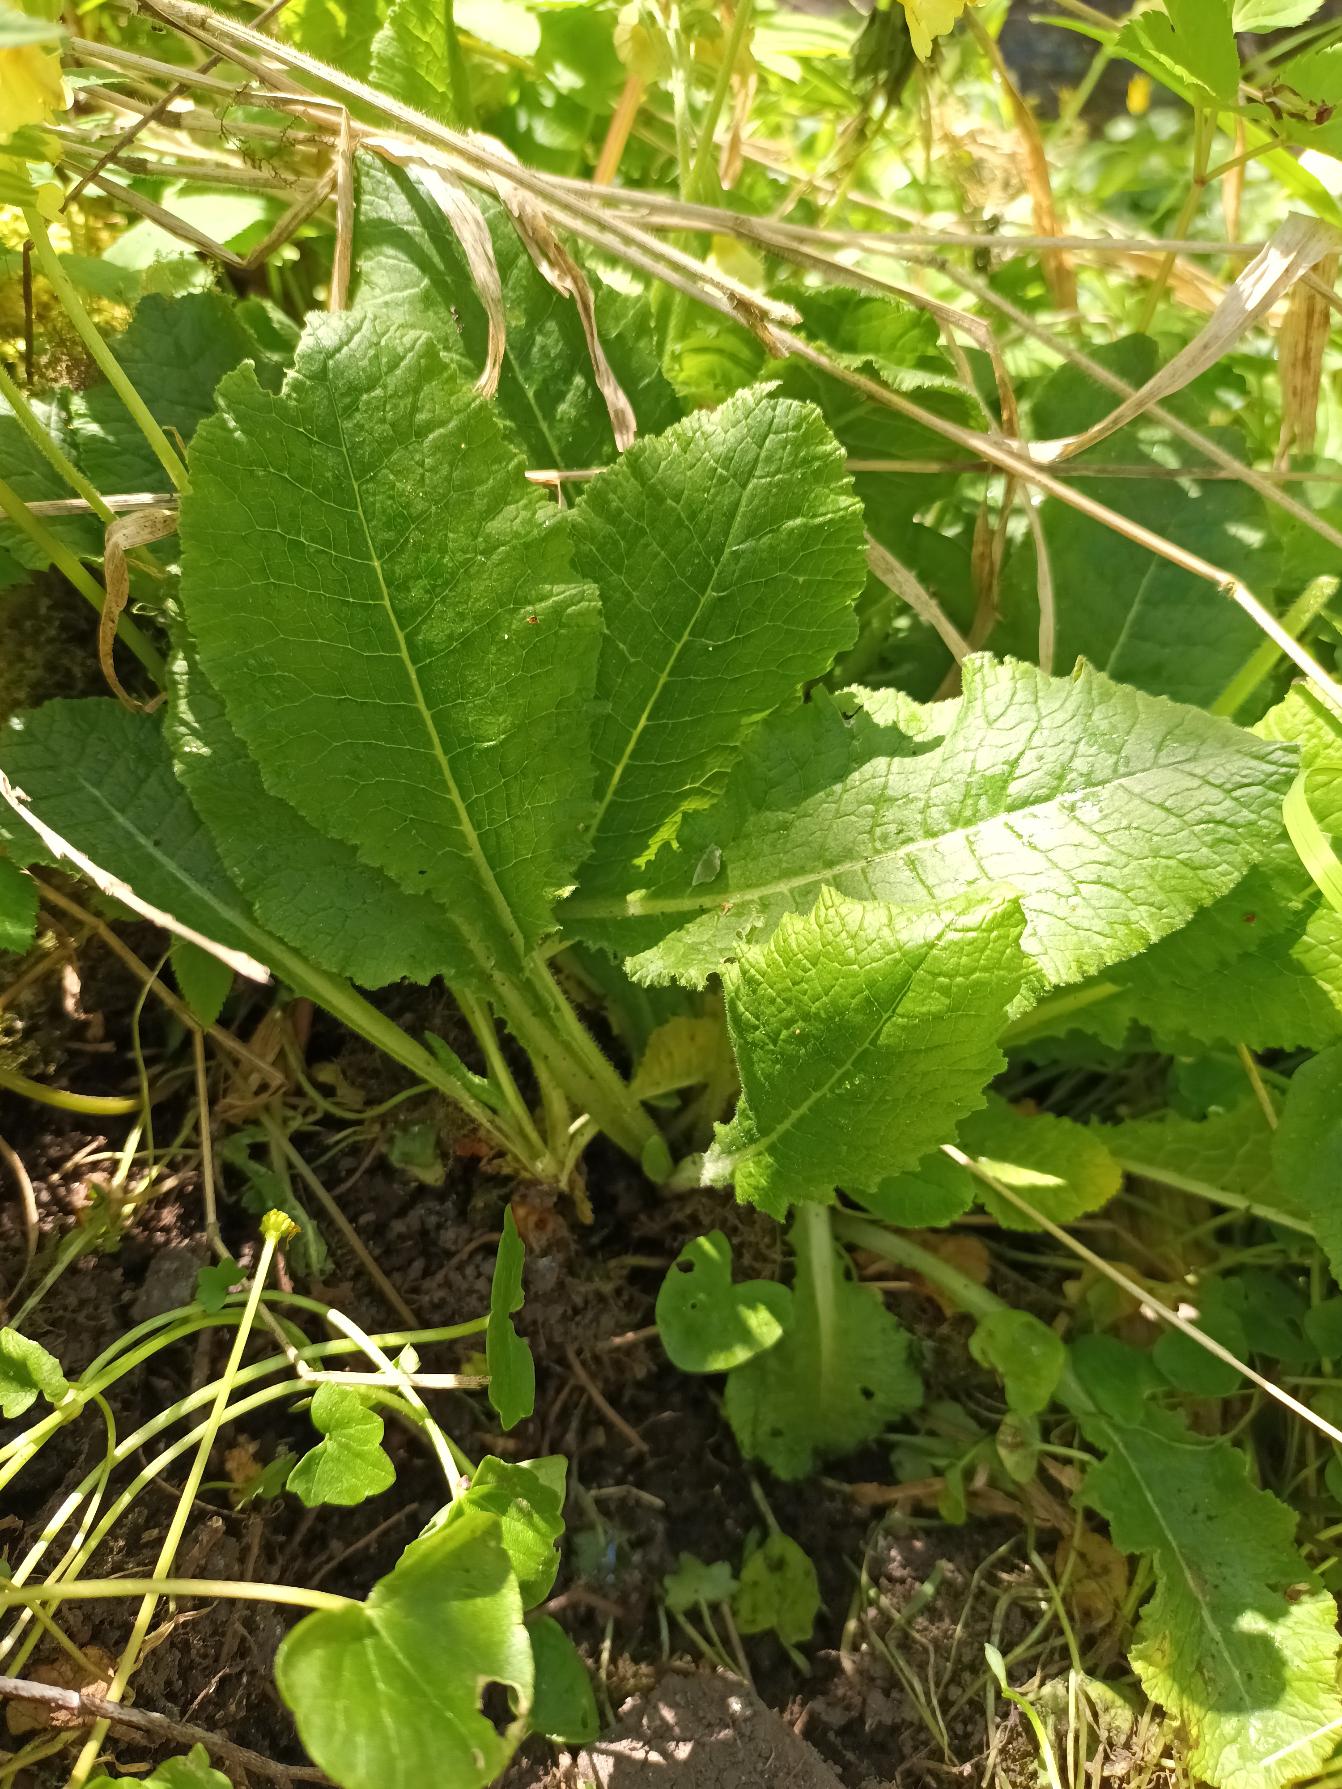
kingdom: Plantae
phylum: Tracheophyta
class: Magnoliopsida
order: Ericales
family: Primulaceae
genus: Primula
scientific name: Primula elatior
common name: Fladkravet kodriver
